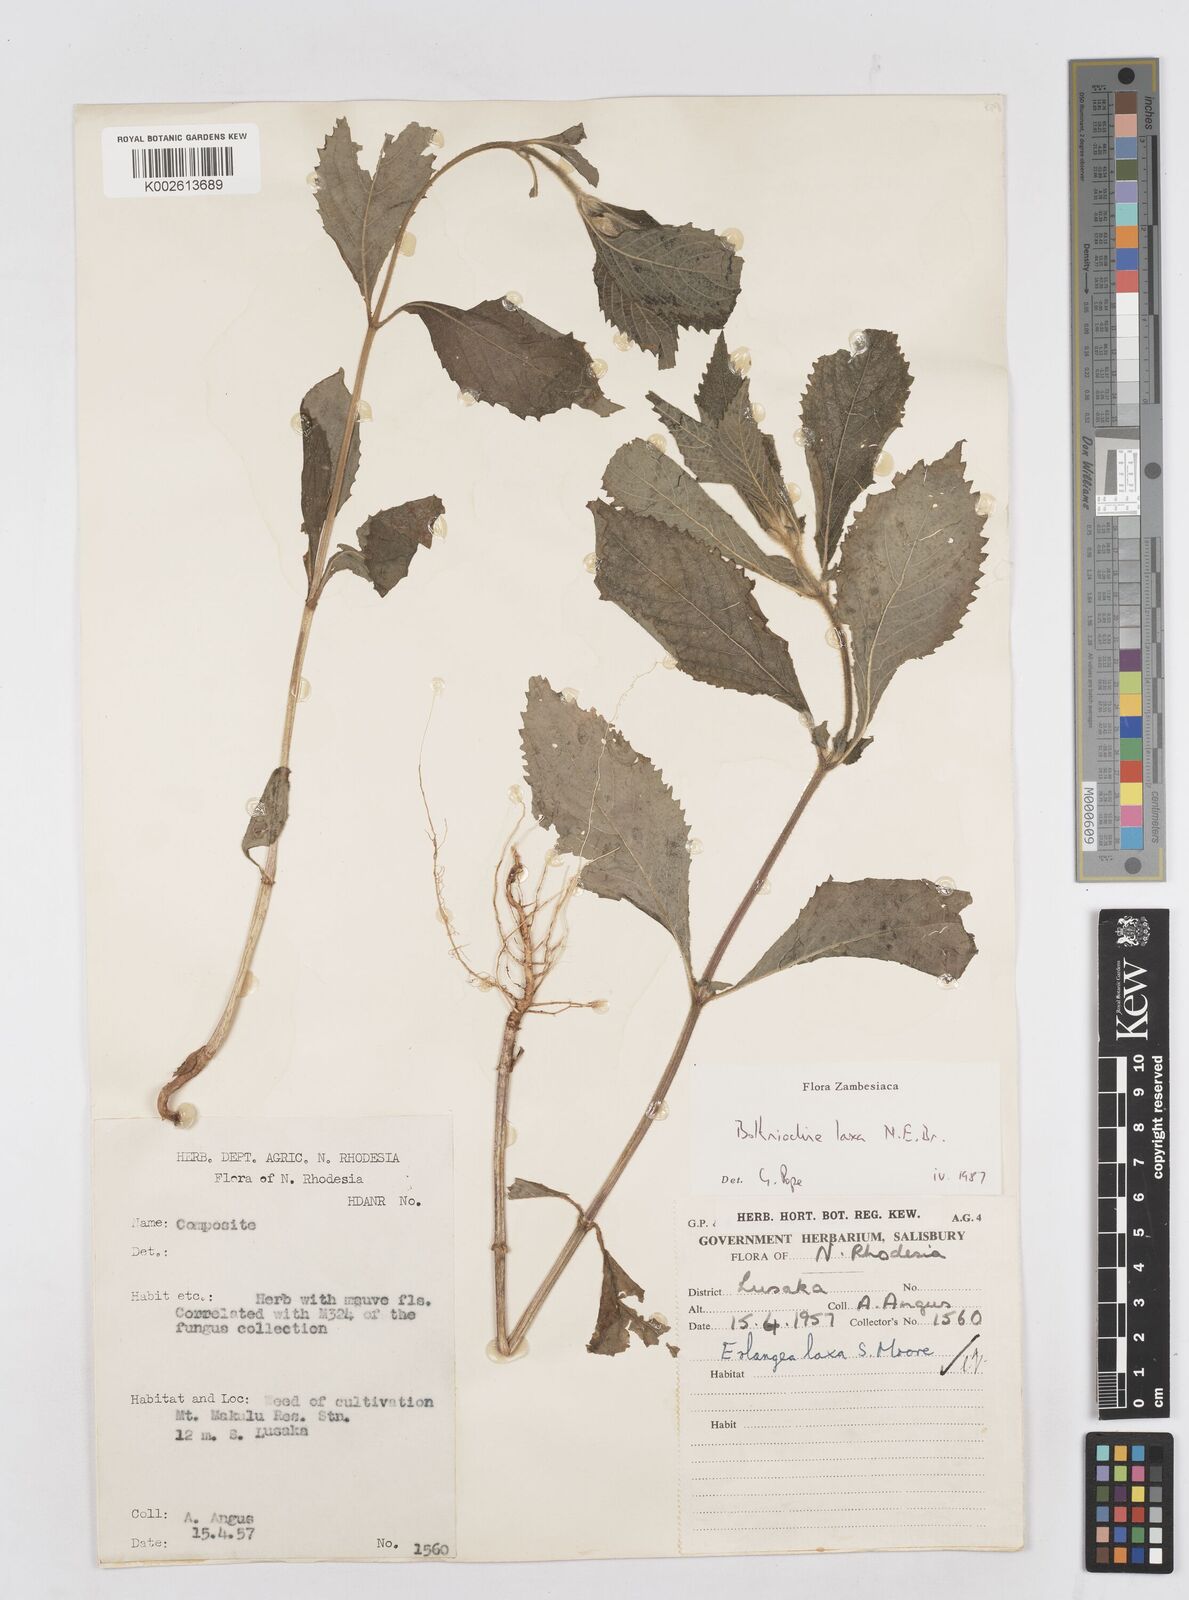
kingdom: Plantae
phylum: Tracheophyta
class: Magnoliopsida
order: Asterales
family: Asteraceae
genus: Bothriocline
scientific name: Bothriocline laxa
